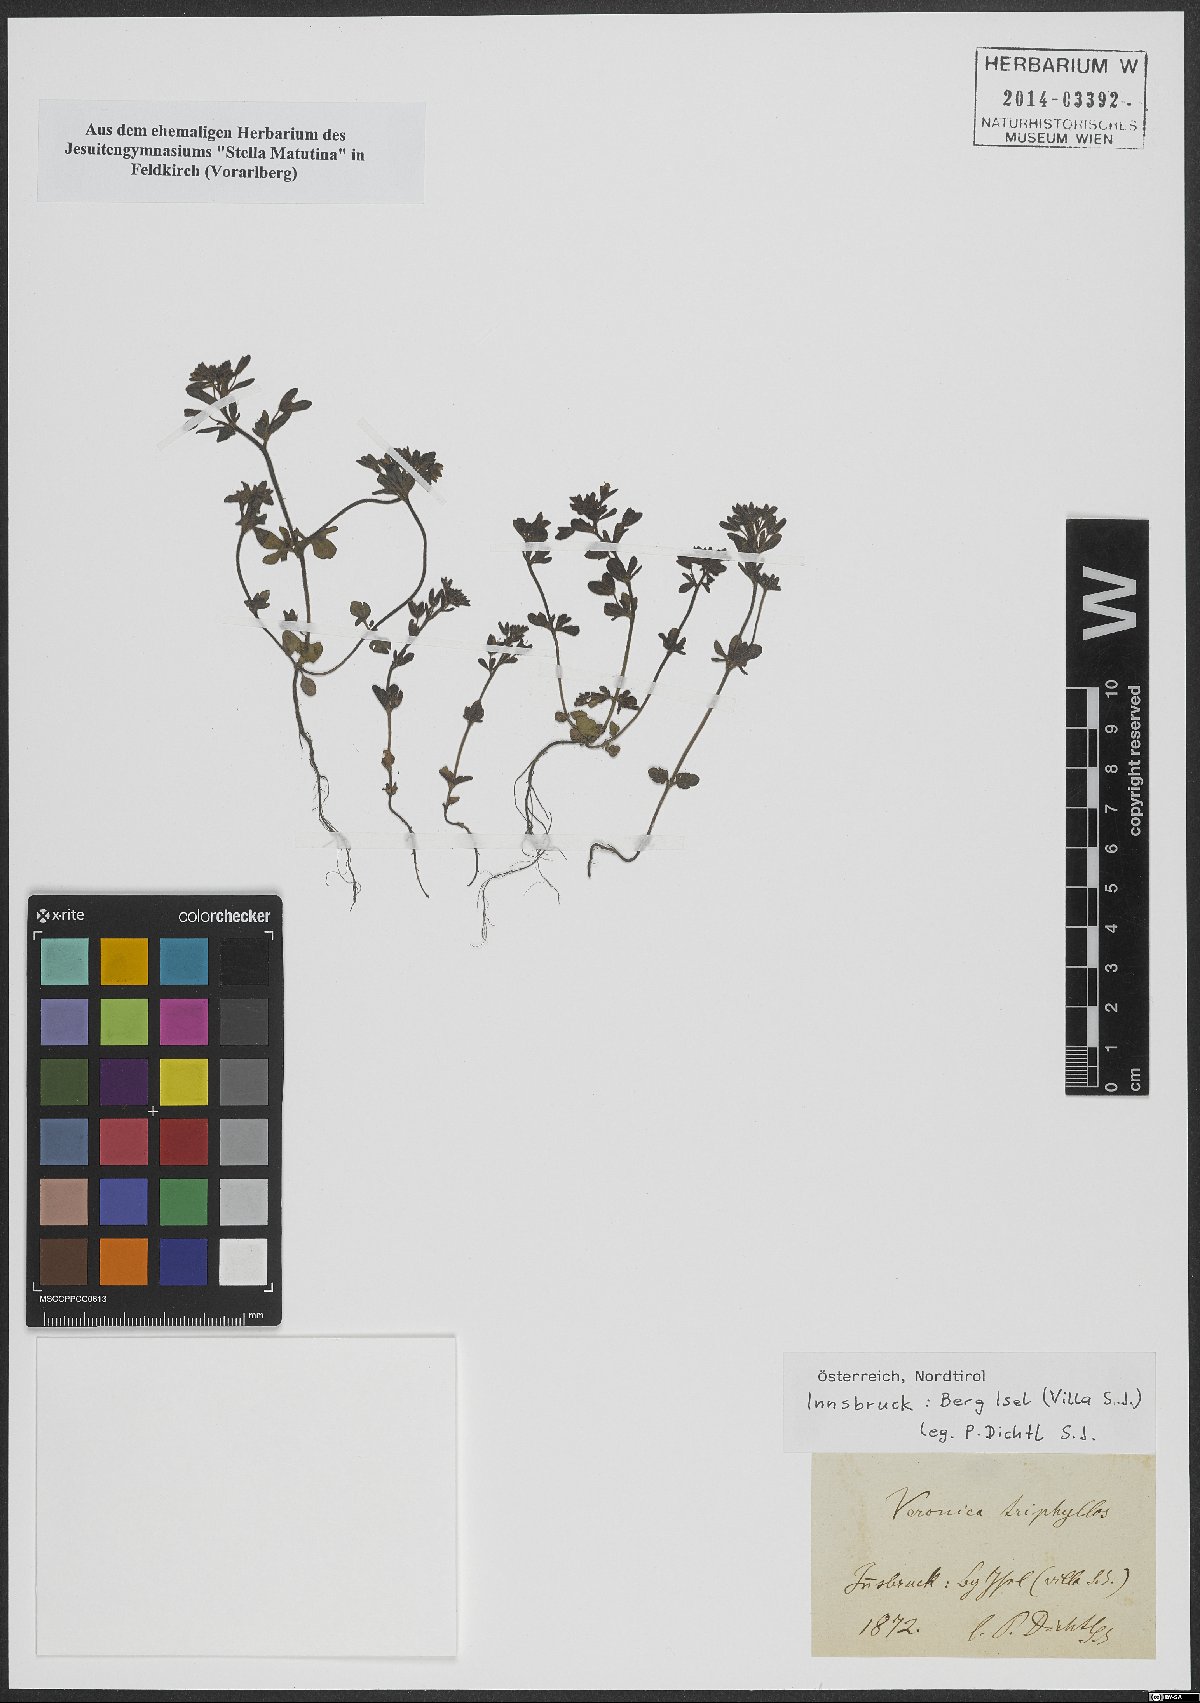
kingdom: Plantae
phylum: Tracheophyta
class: Magnoliopsida
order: Lamiales
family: Plantaginaceae
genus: Veronica
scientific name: Veronica triphyllos
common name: Fingered speedwell
